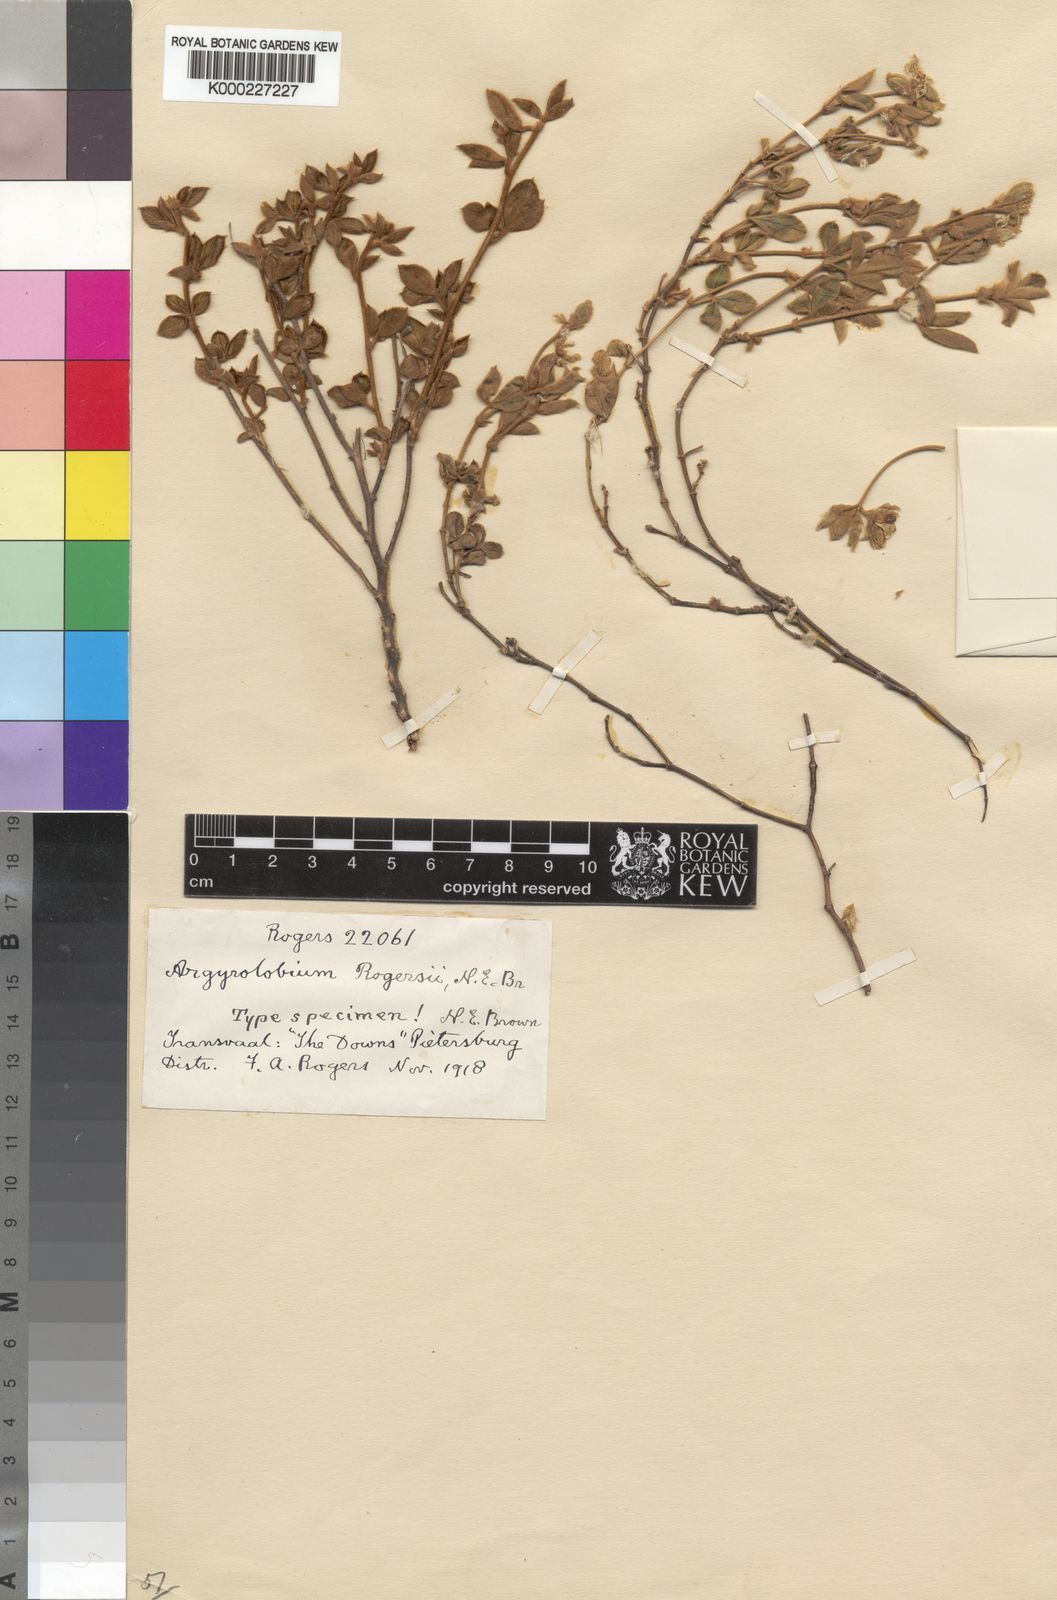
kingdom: Plantae
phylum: Tracheophyta
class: Magnoliopsida
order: Fabales
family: Fabaceae
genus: Argyrolobium
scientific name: Argyrolobium rupestre
